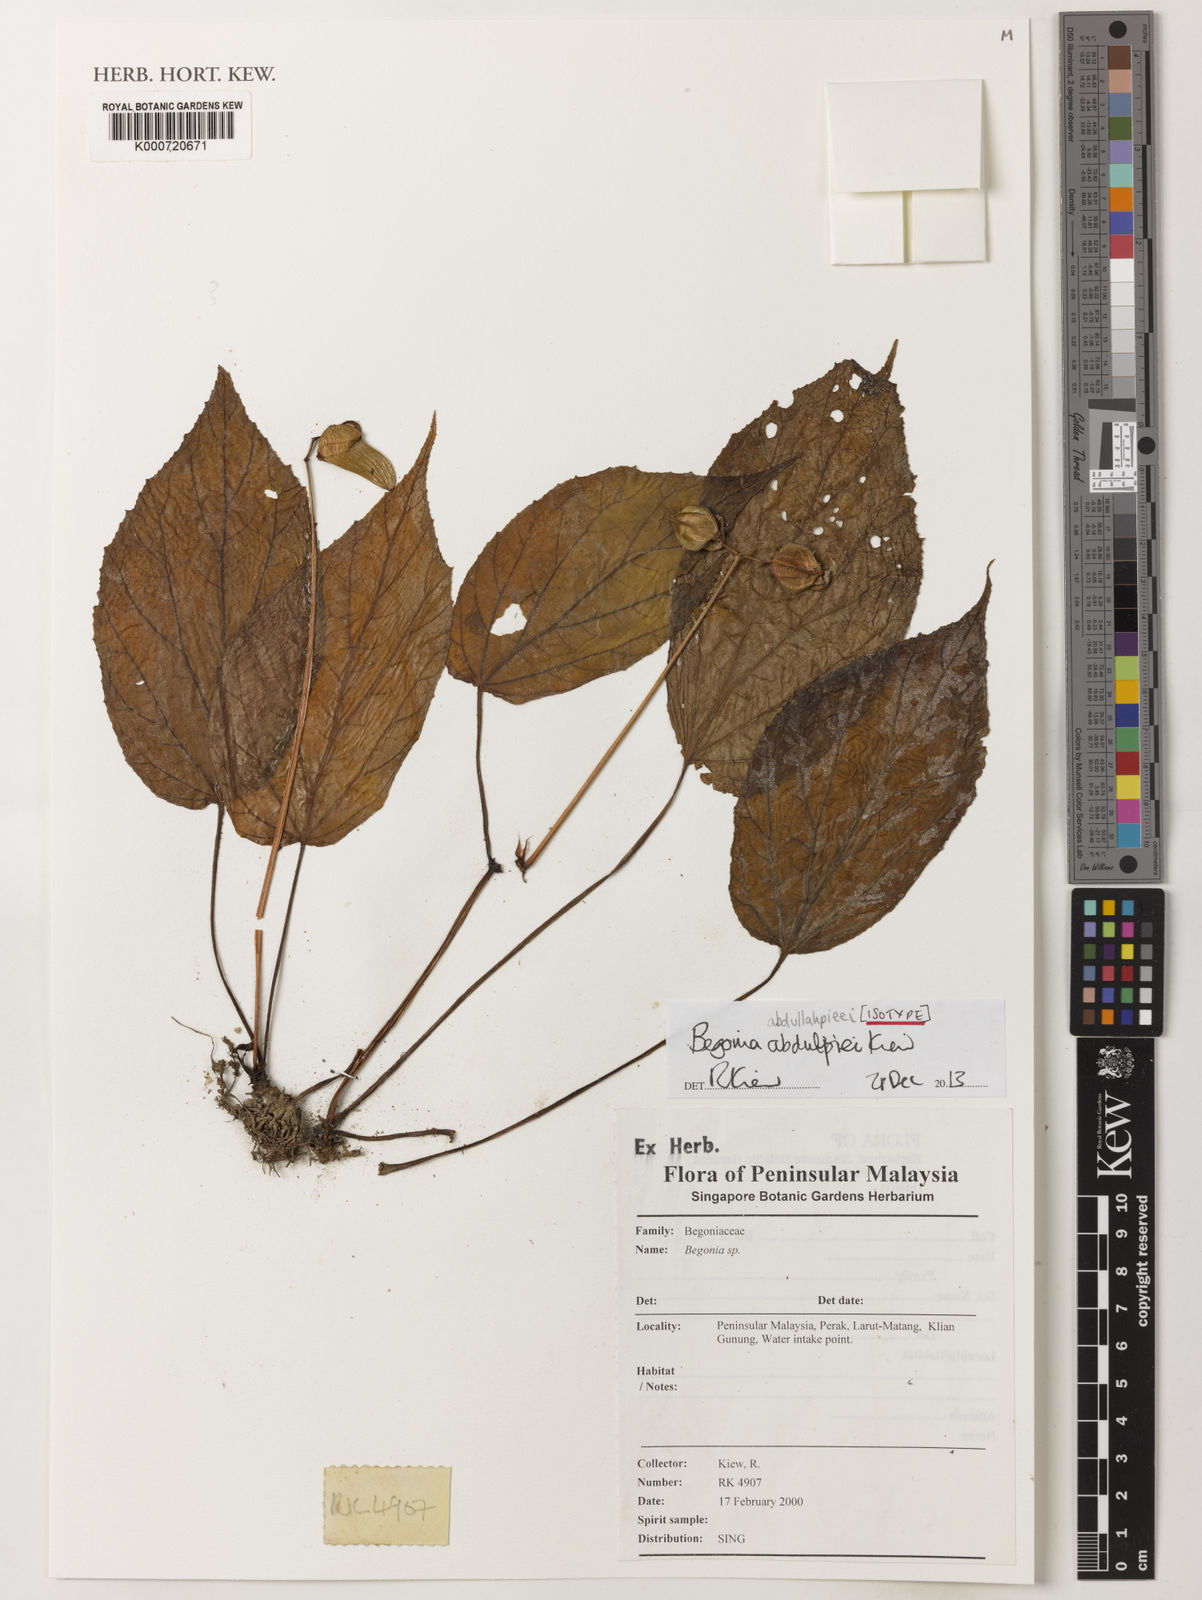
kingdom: Plantae
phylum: Tracheophyta
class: Magnoliopsida
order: Cucurbitales
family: Begoniaceae
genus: Begonia
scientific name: Begonia abdullahpieei
